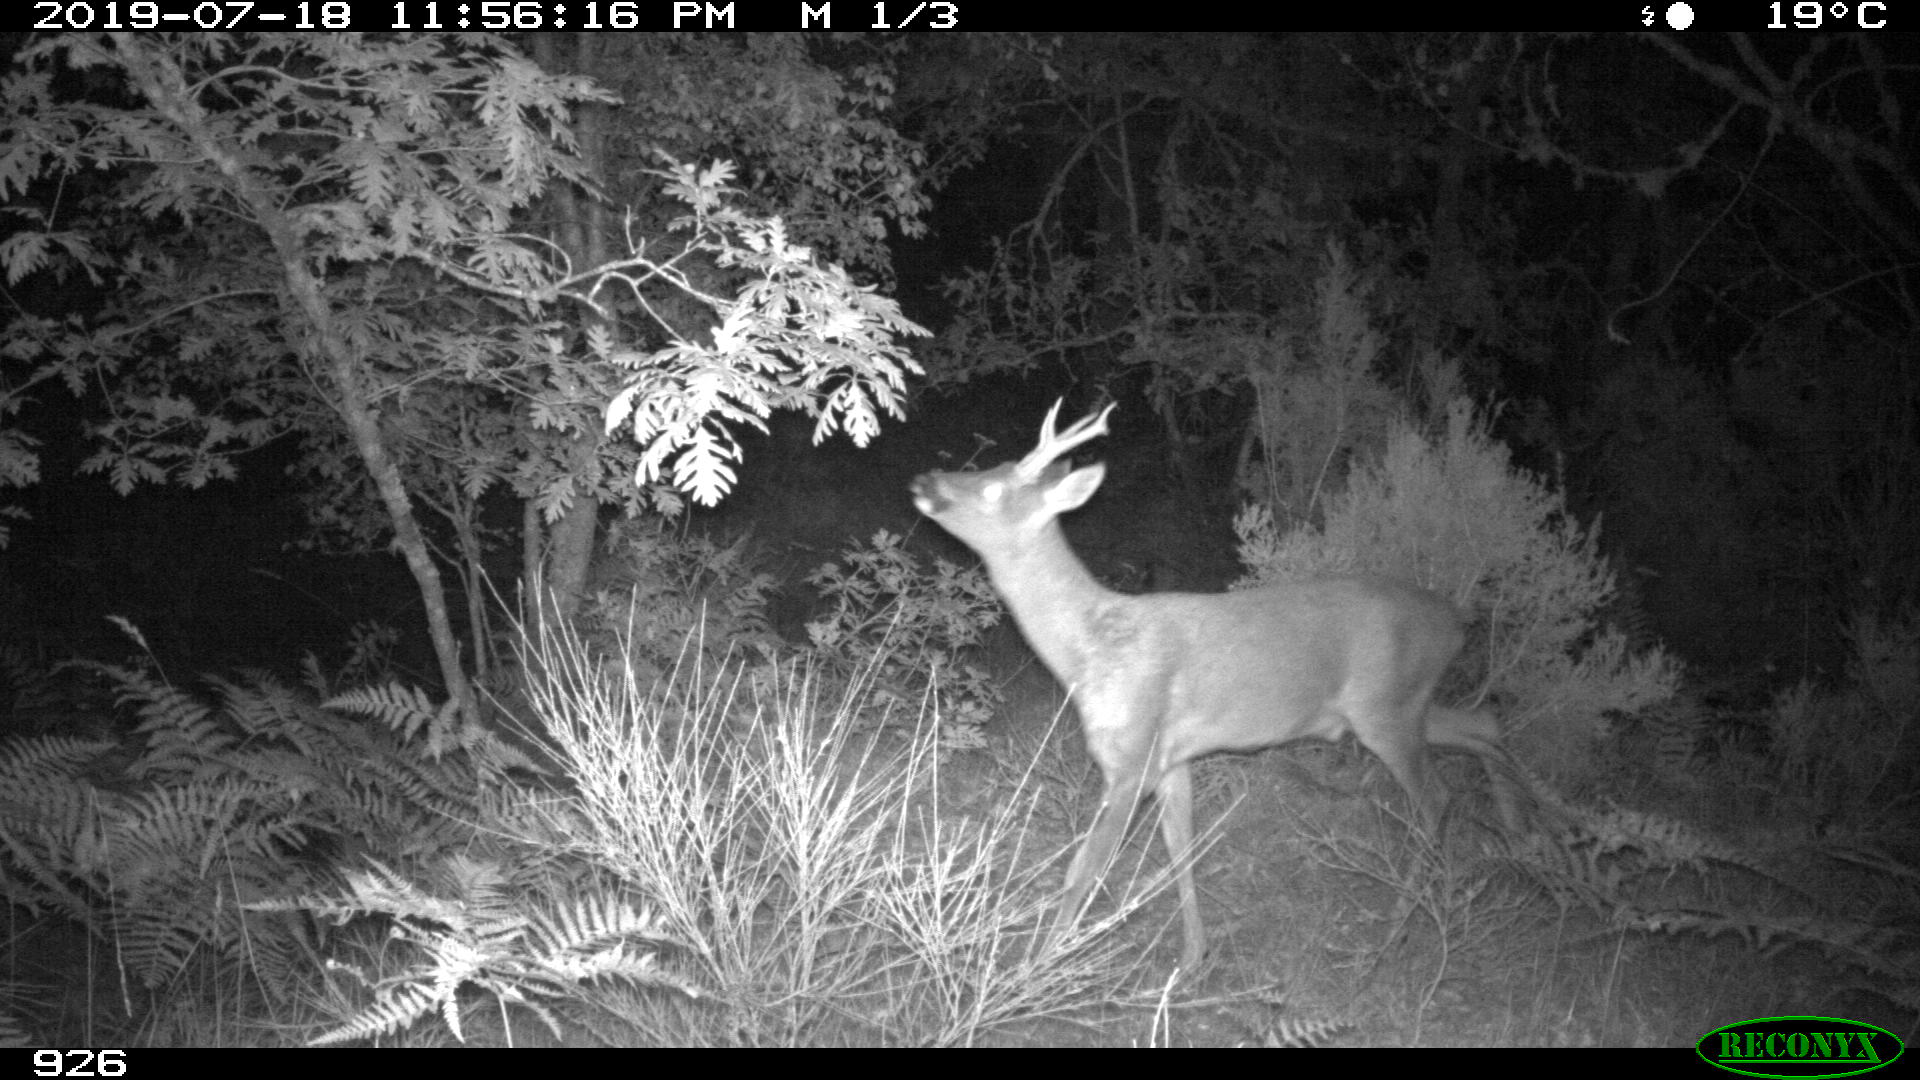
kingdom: Animalia
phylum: Chordata
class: Mammalia
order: Artiodactyla
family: Cervidae
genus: Capreolus
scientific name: Capreolus capreolus
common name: Western roe deer
